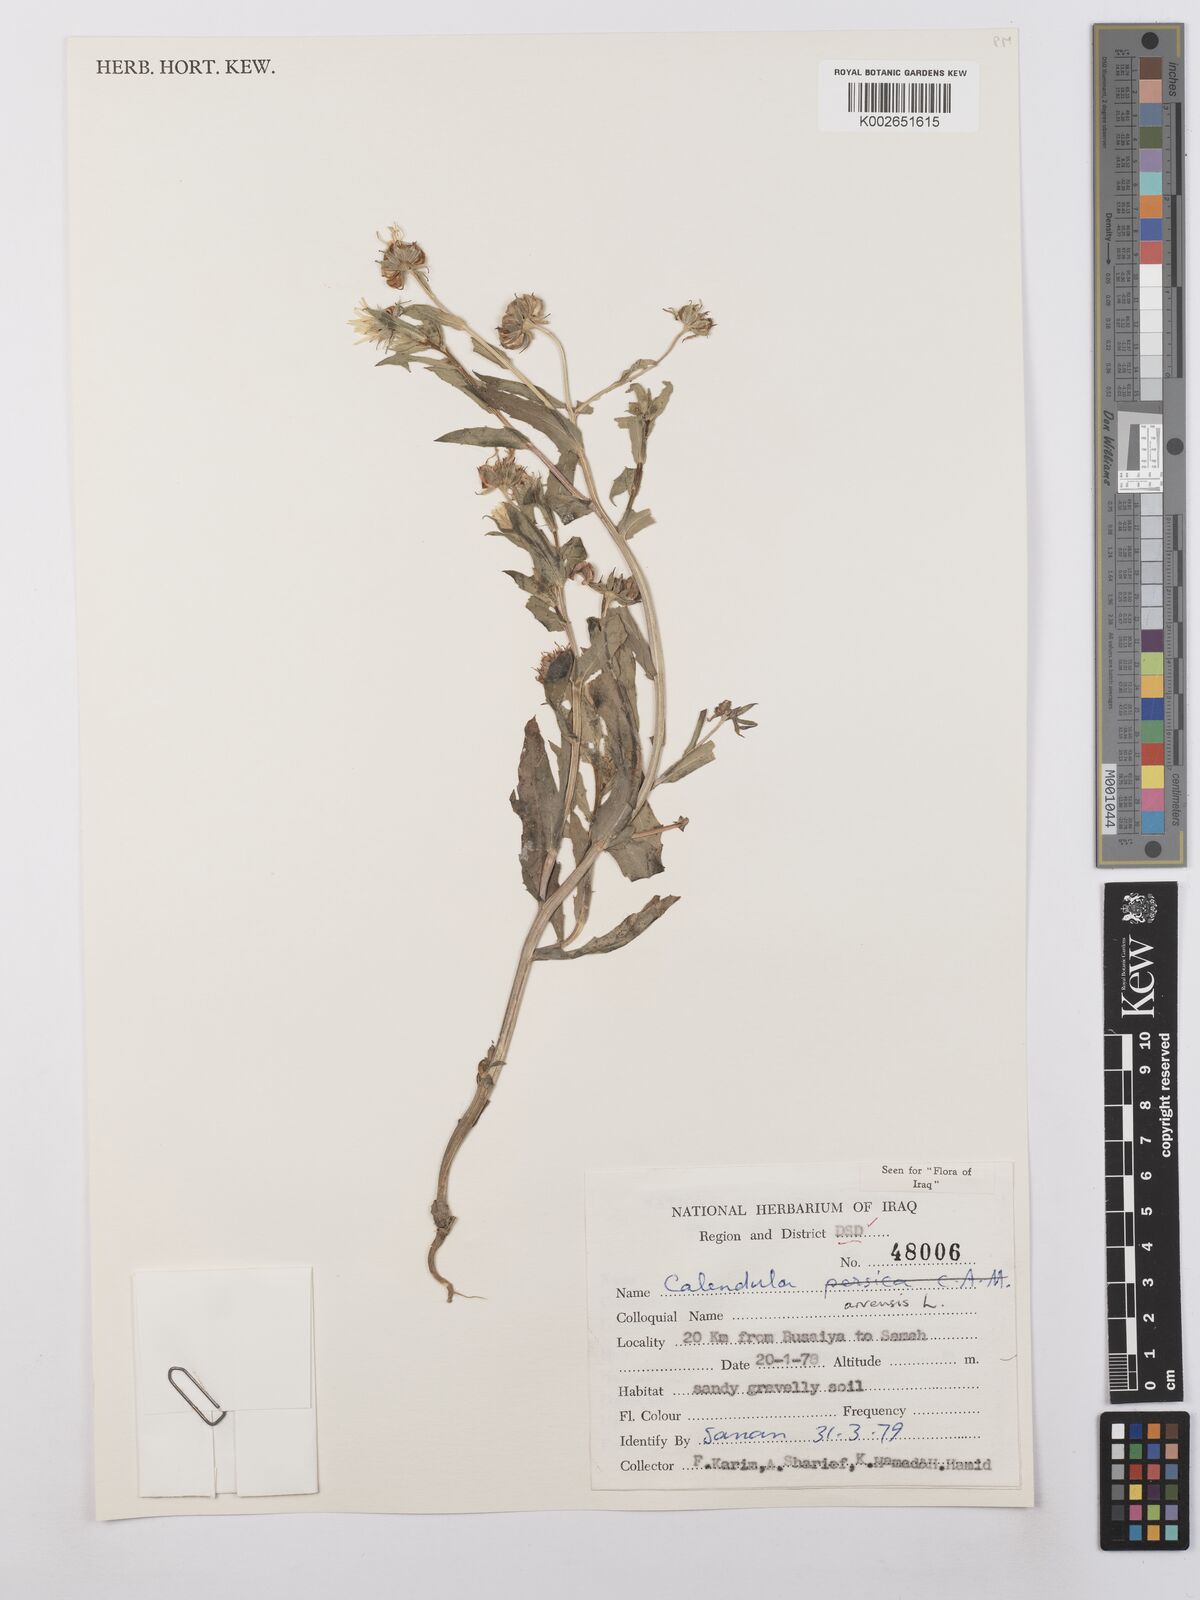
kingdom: Plantae
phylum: Tracheophyta
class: Magnoliopsida
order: Asterales
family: Asteraceae
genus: Calendula
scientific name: Calendula arvensis
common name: Field marigold
